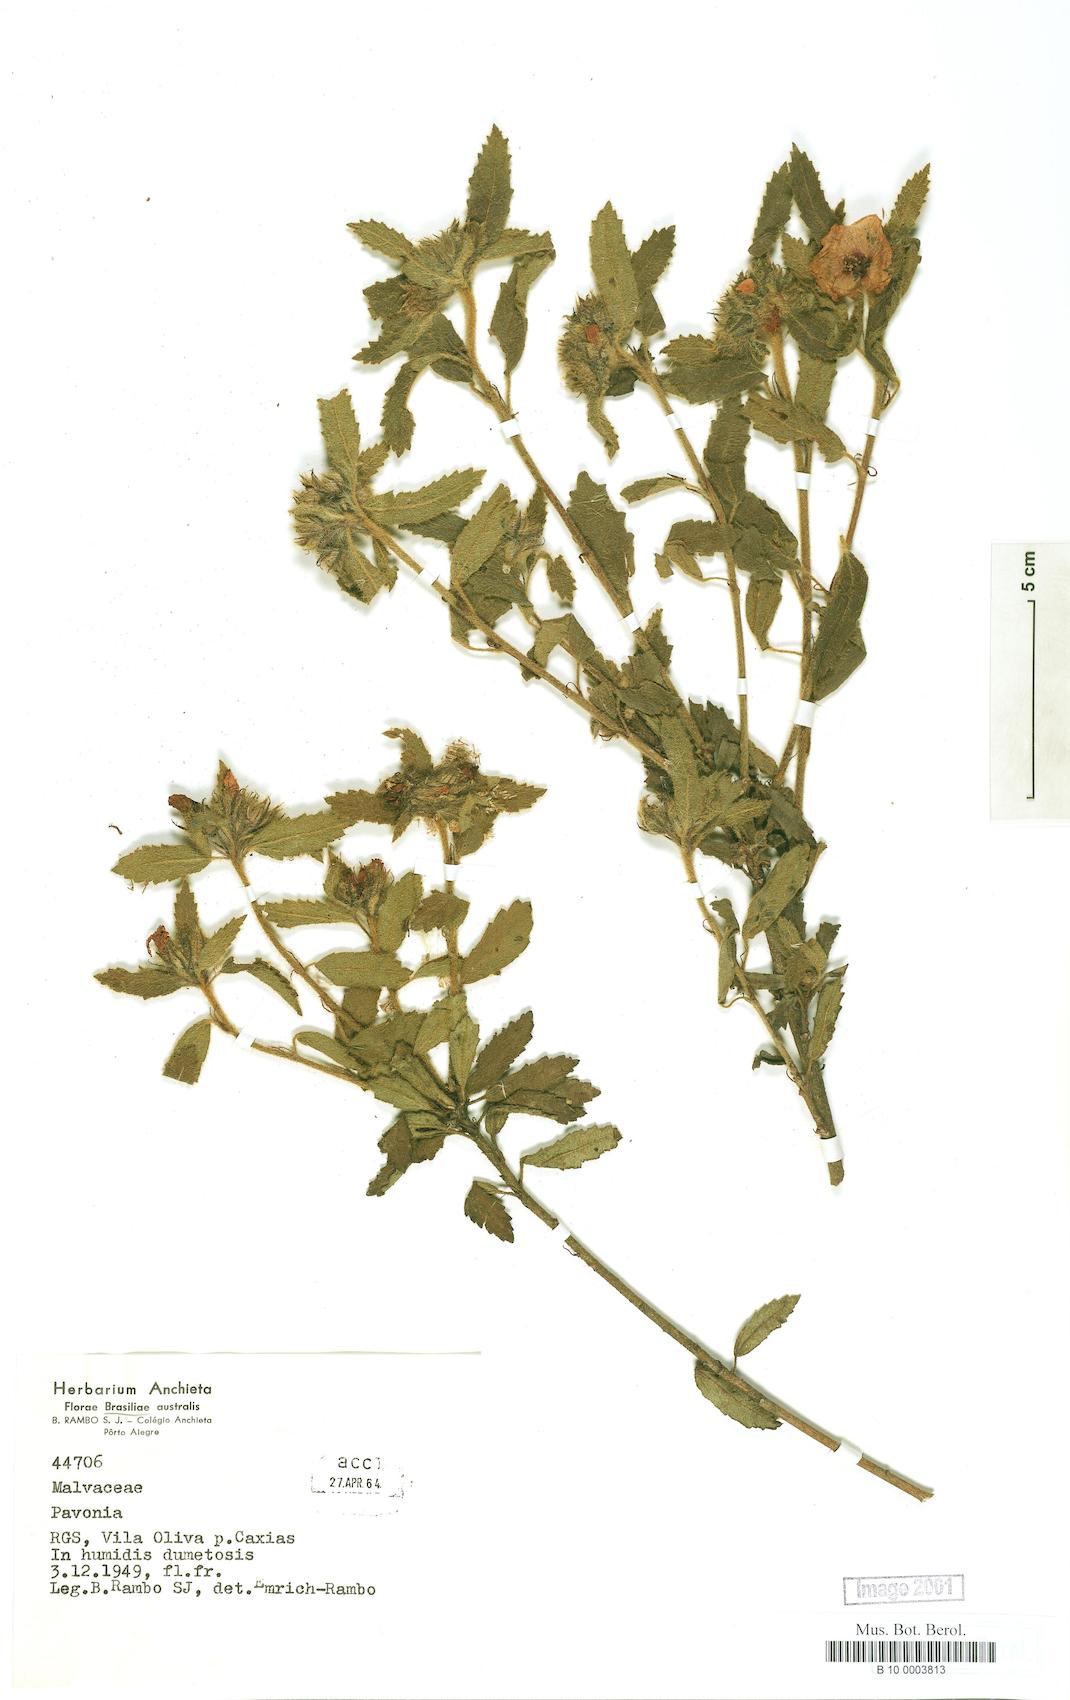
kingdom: Plantae
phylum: Tracheophyta
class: Magnoliopsida
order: Malvales
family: Malvaceae
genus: Pavonia
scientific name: Pavonia
